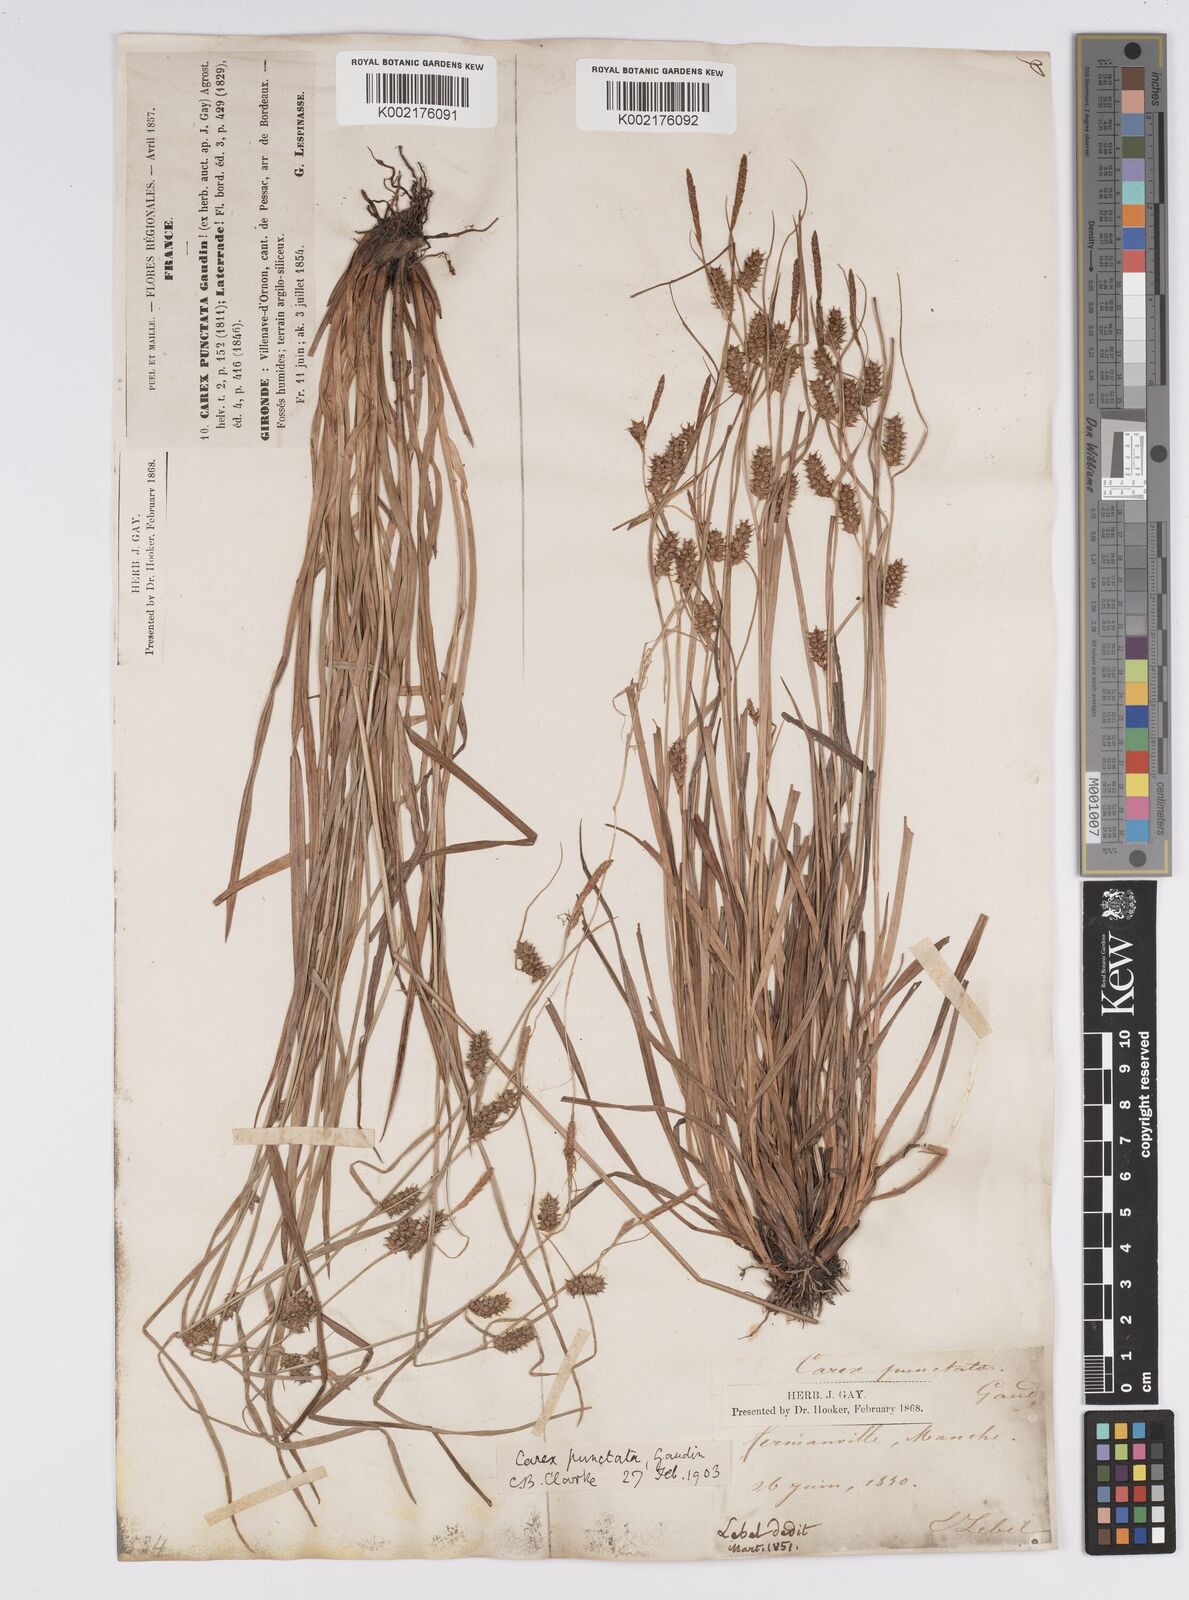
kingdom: Plantae
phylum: Tracheophyta
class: Liliopsida
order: Poales
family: Cyperaceae
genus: Carex
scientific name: Carex punctata
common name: Dotted sedge
